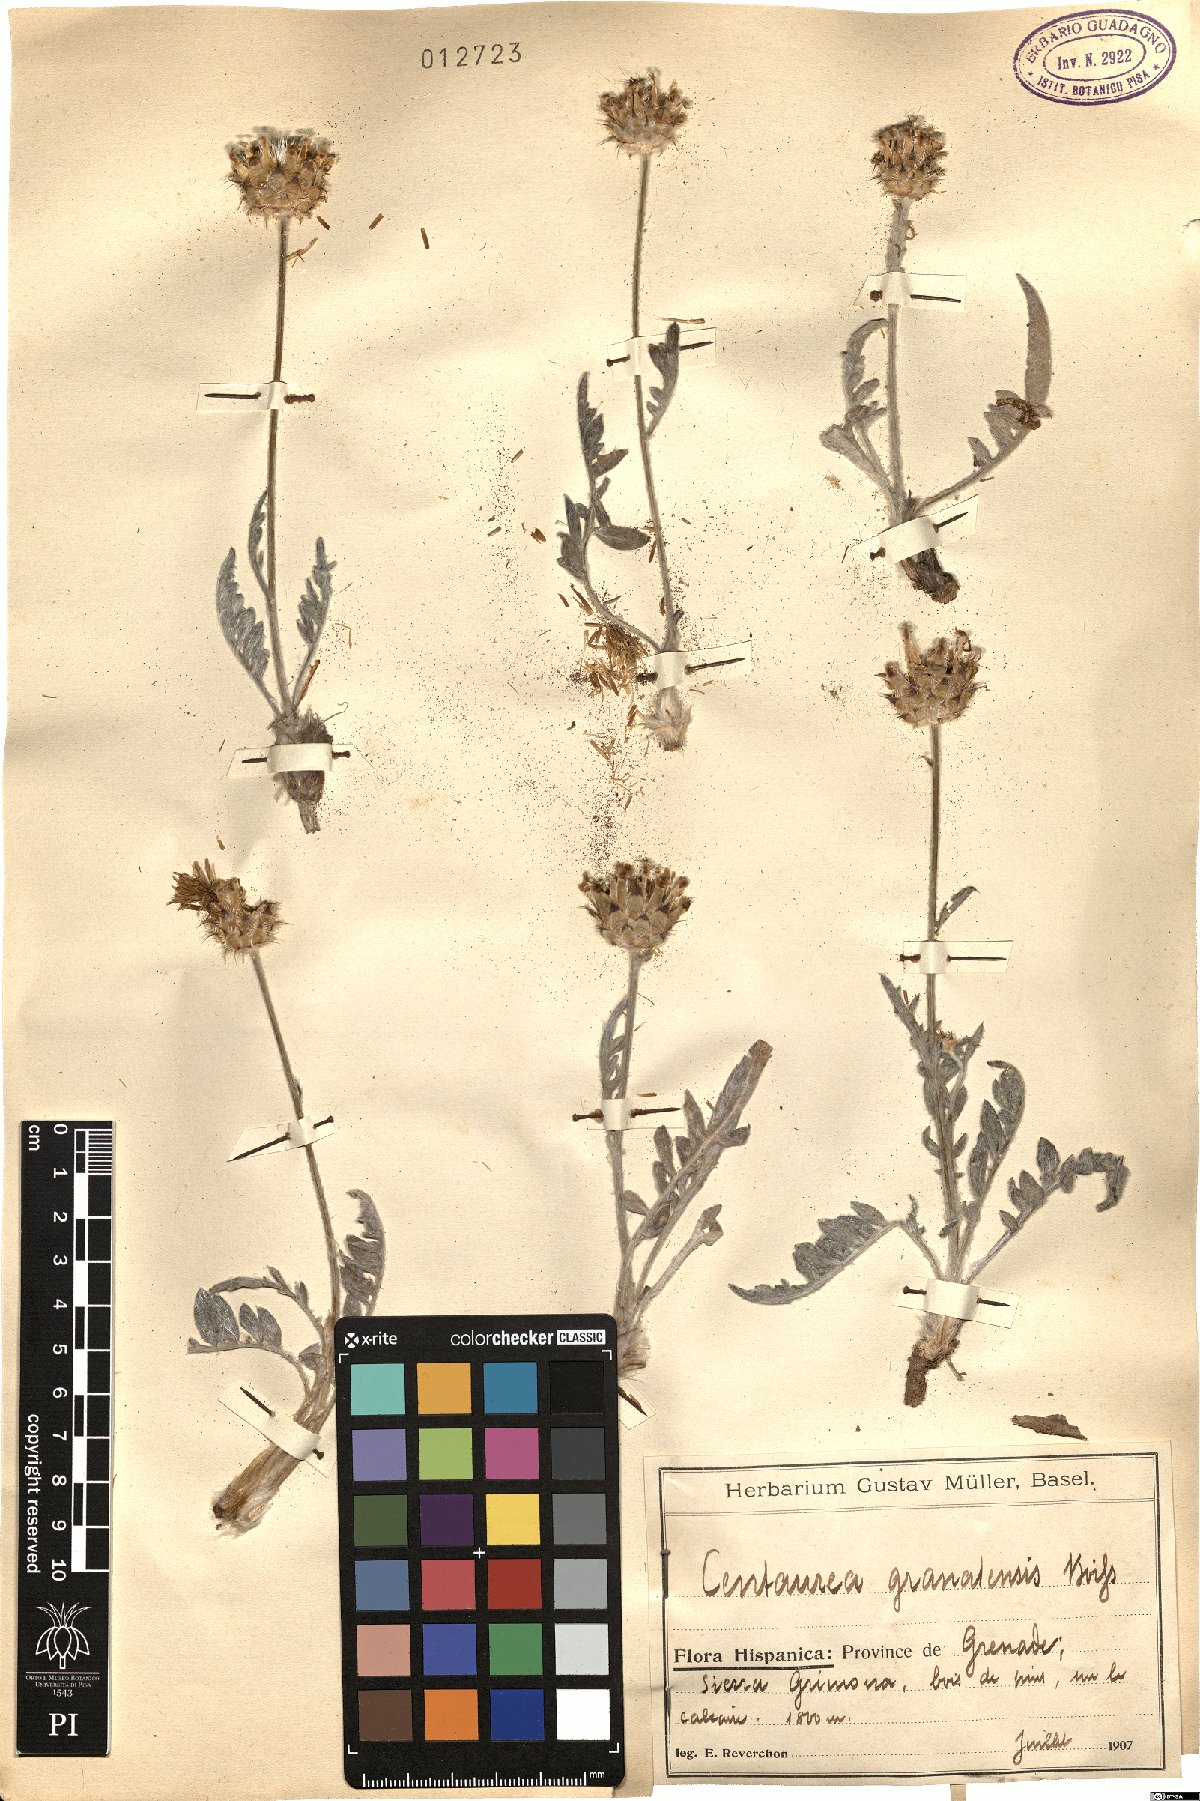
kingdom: Plantae
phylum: Tracheophyta
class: Magnoliopsida
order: Asterales
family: Asteraceae
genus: Centaurea
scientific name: Centaurea granatensis
